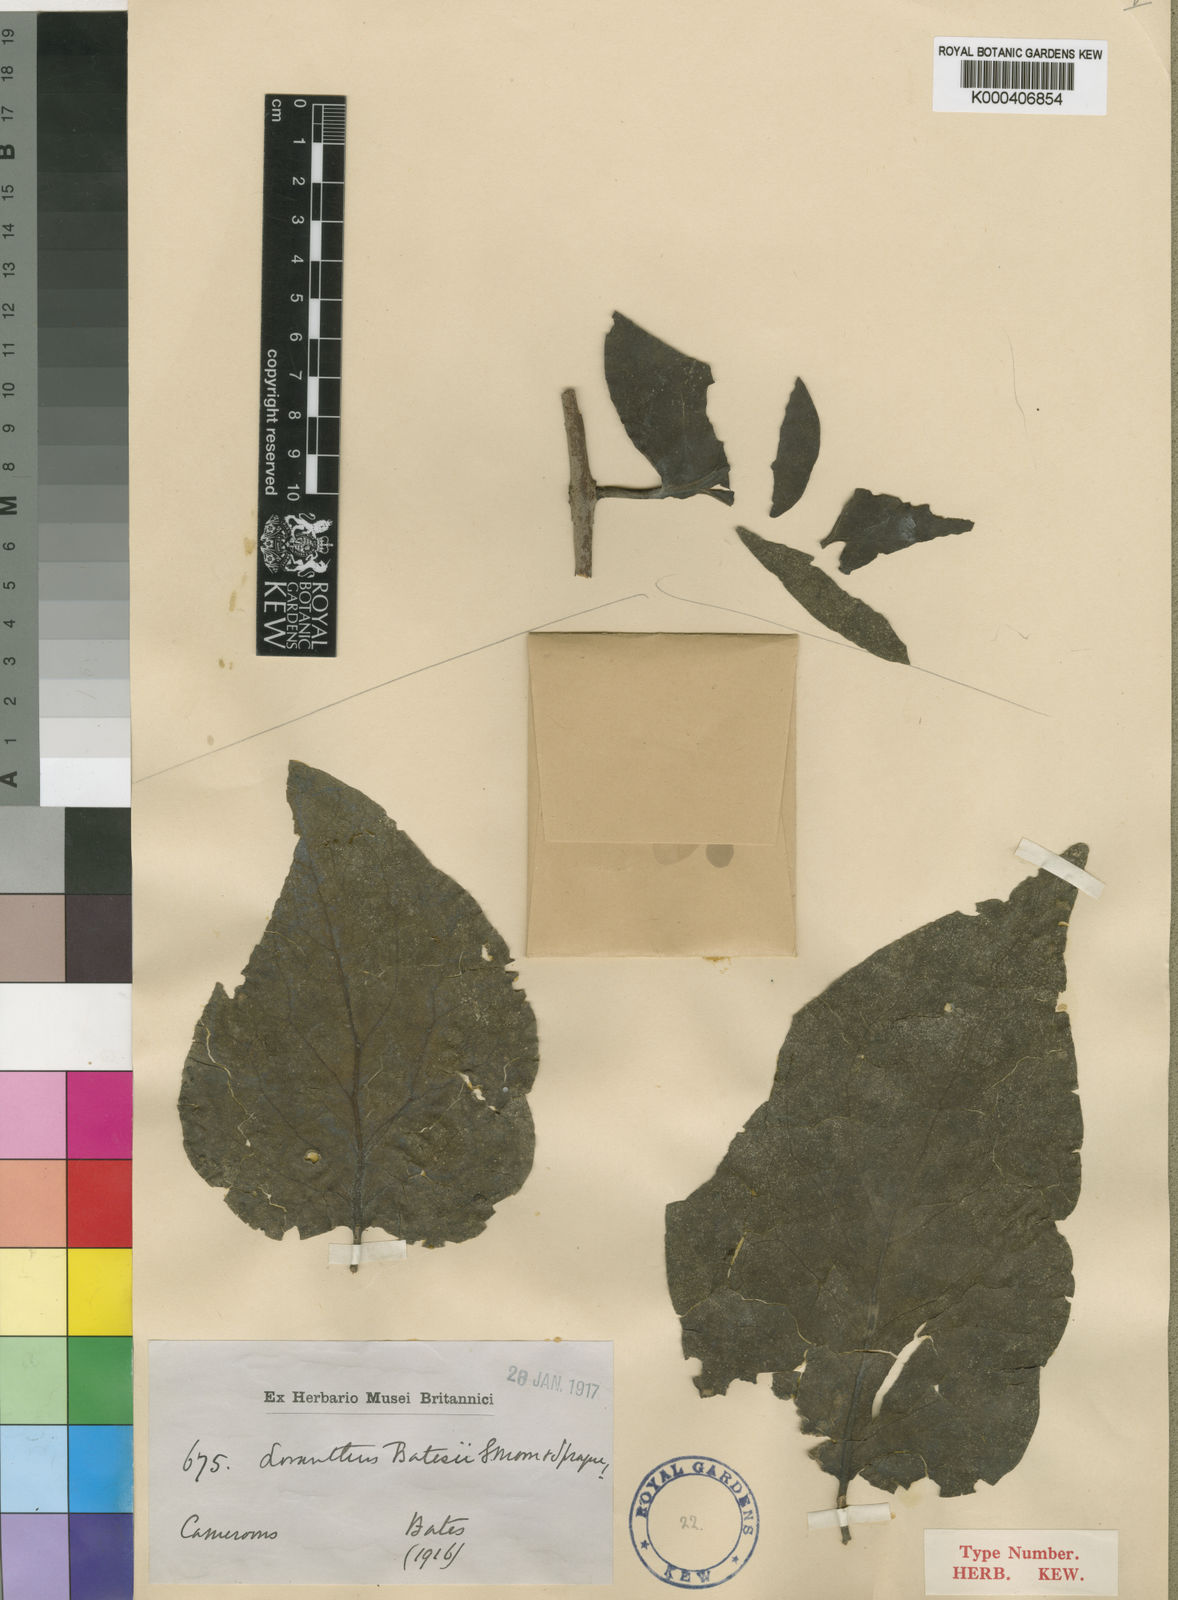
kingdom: Plantae
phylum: Tracheophyta
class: Magnoliopsida
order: Santalales
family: Loranthaceae
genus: Tapinanthus
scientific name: Tapinanthus ogowensis
